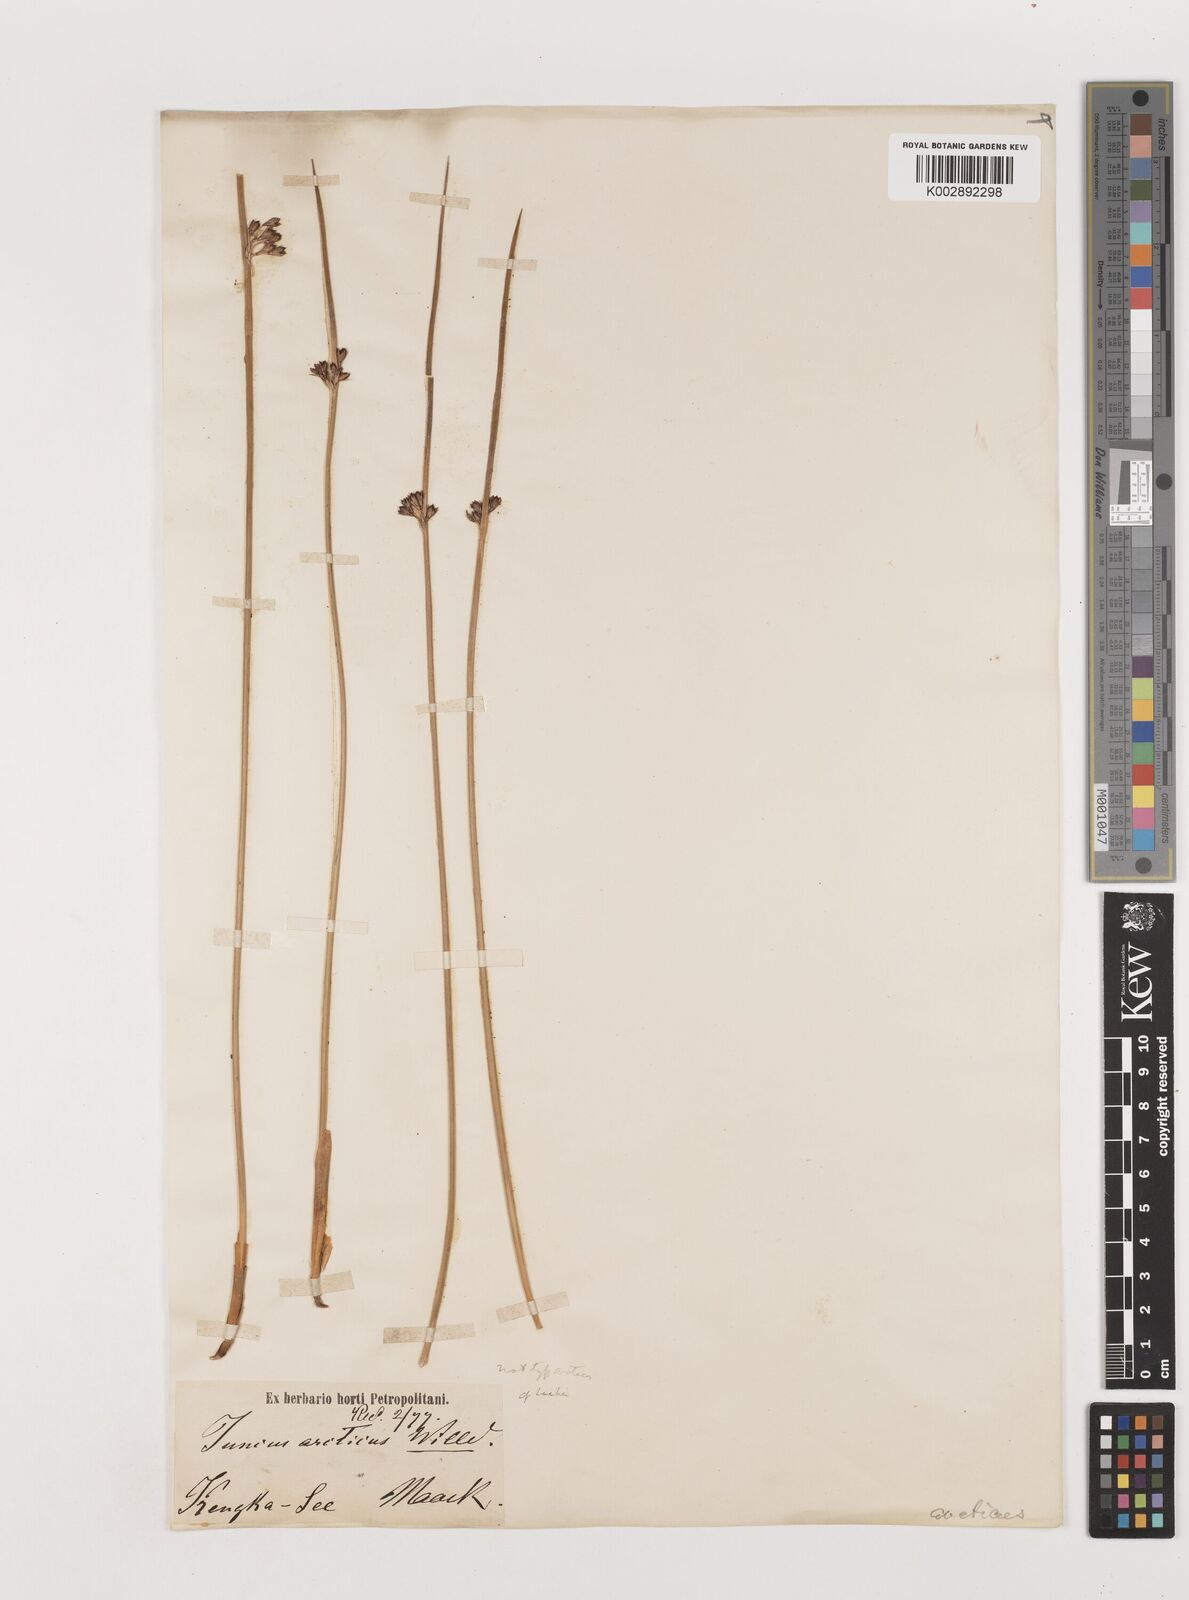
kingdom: Plantae
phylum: Tracheophyta
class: Liliopsida
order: Poales
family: Juncaceae
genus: Juncus
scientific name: Juncus arcticus
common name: Arctic rush
